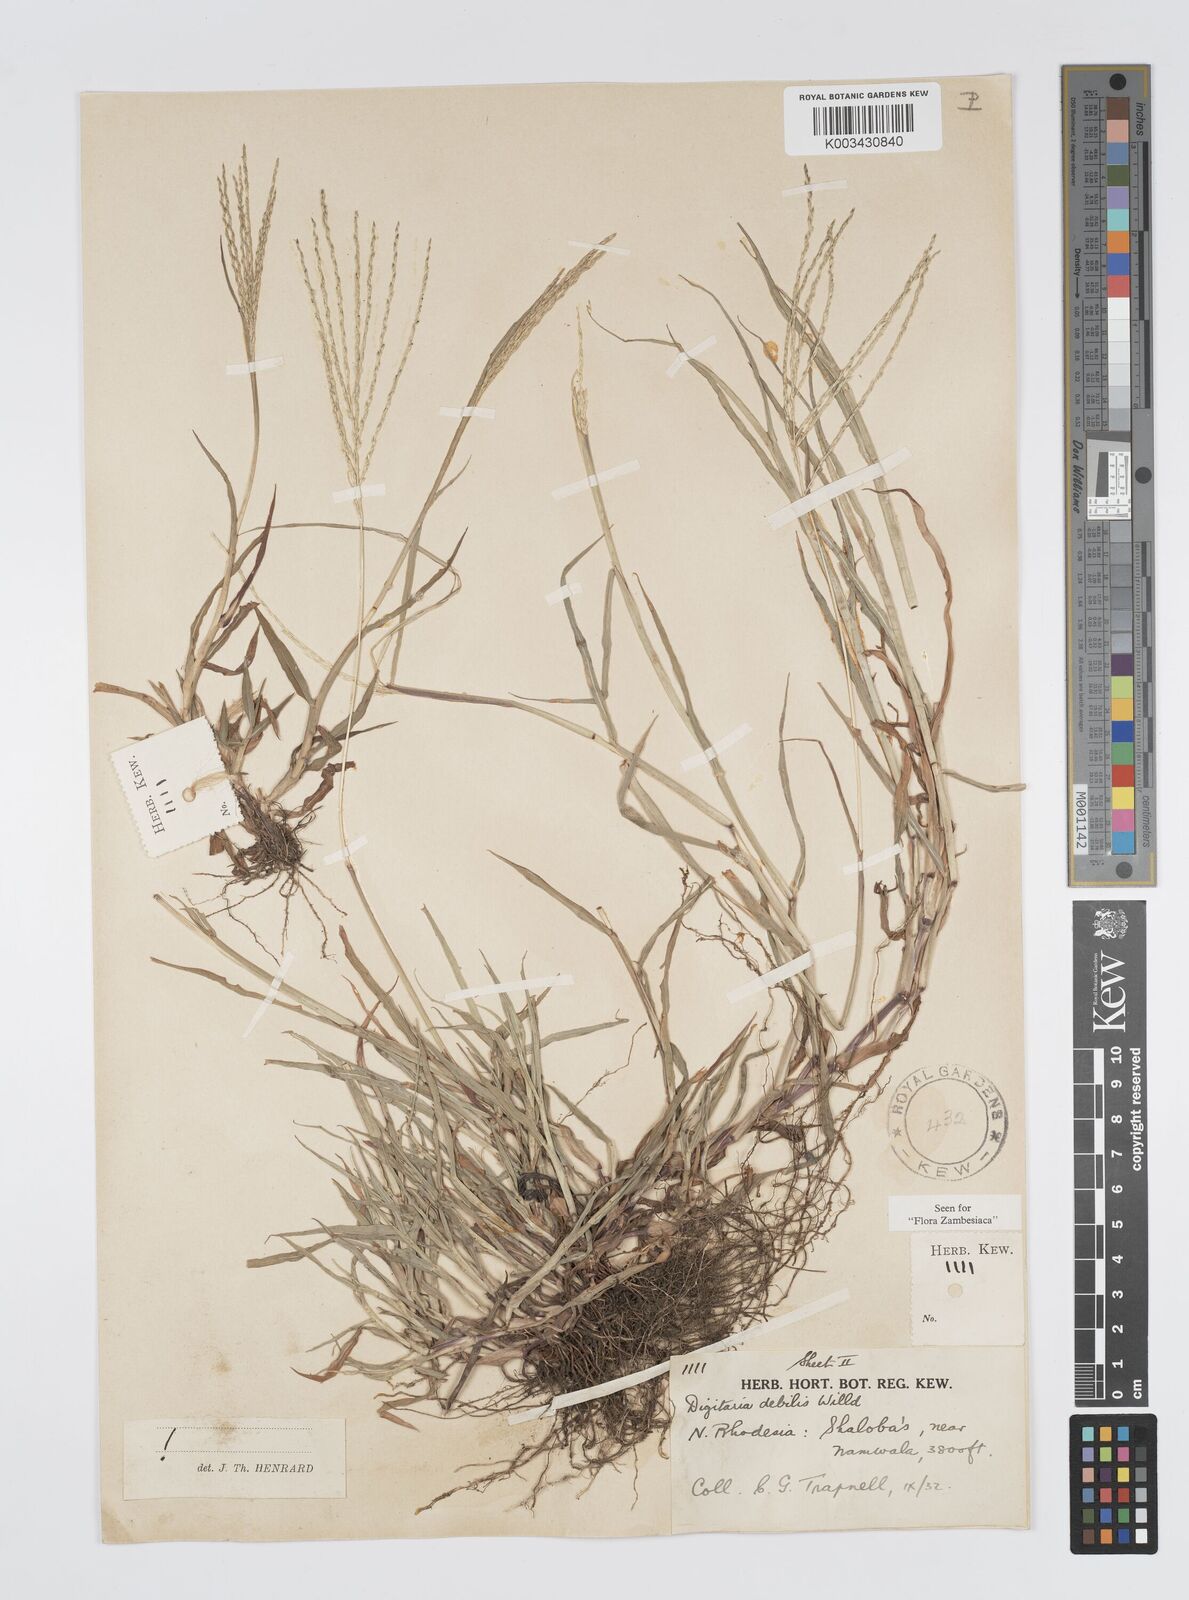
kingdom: Plantae
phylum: Tracheophyta
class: Liliopsida
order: Poales
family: Poaceae
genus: Digitaria
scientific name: Digitaria debilis
